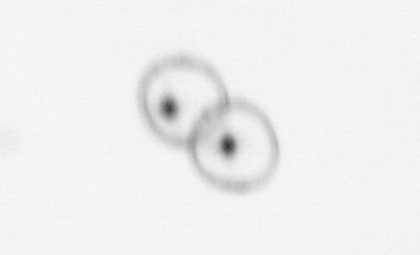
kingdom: Chromista
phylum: Myzozoa
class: Dinophyceae
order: Noctilucales
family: Noctilucaceae
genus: Noctiluca
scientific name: Noctiluca scintillans
